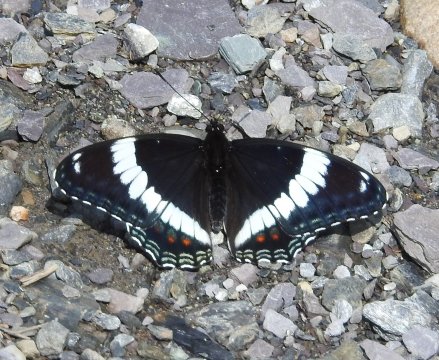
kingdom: Animalia
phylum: Arthropoda
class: Insecta
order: Lepidoptera
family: Nymphalidae
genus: Limenitis
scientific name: Limenitis arthemis
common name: Red-spotted Admiral
